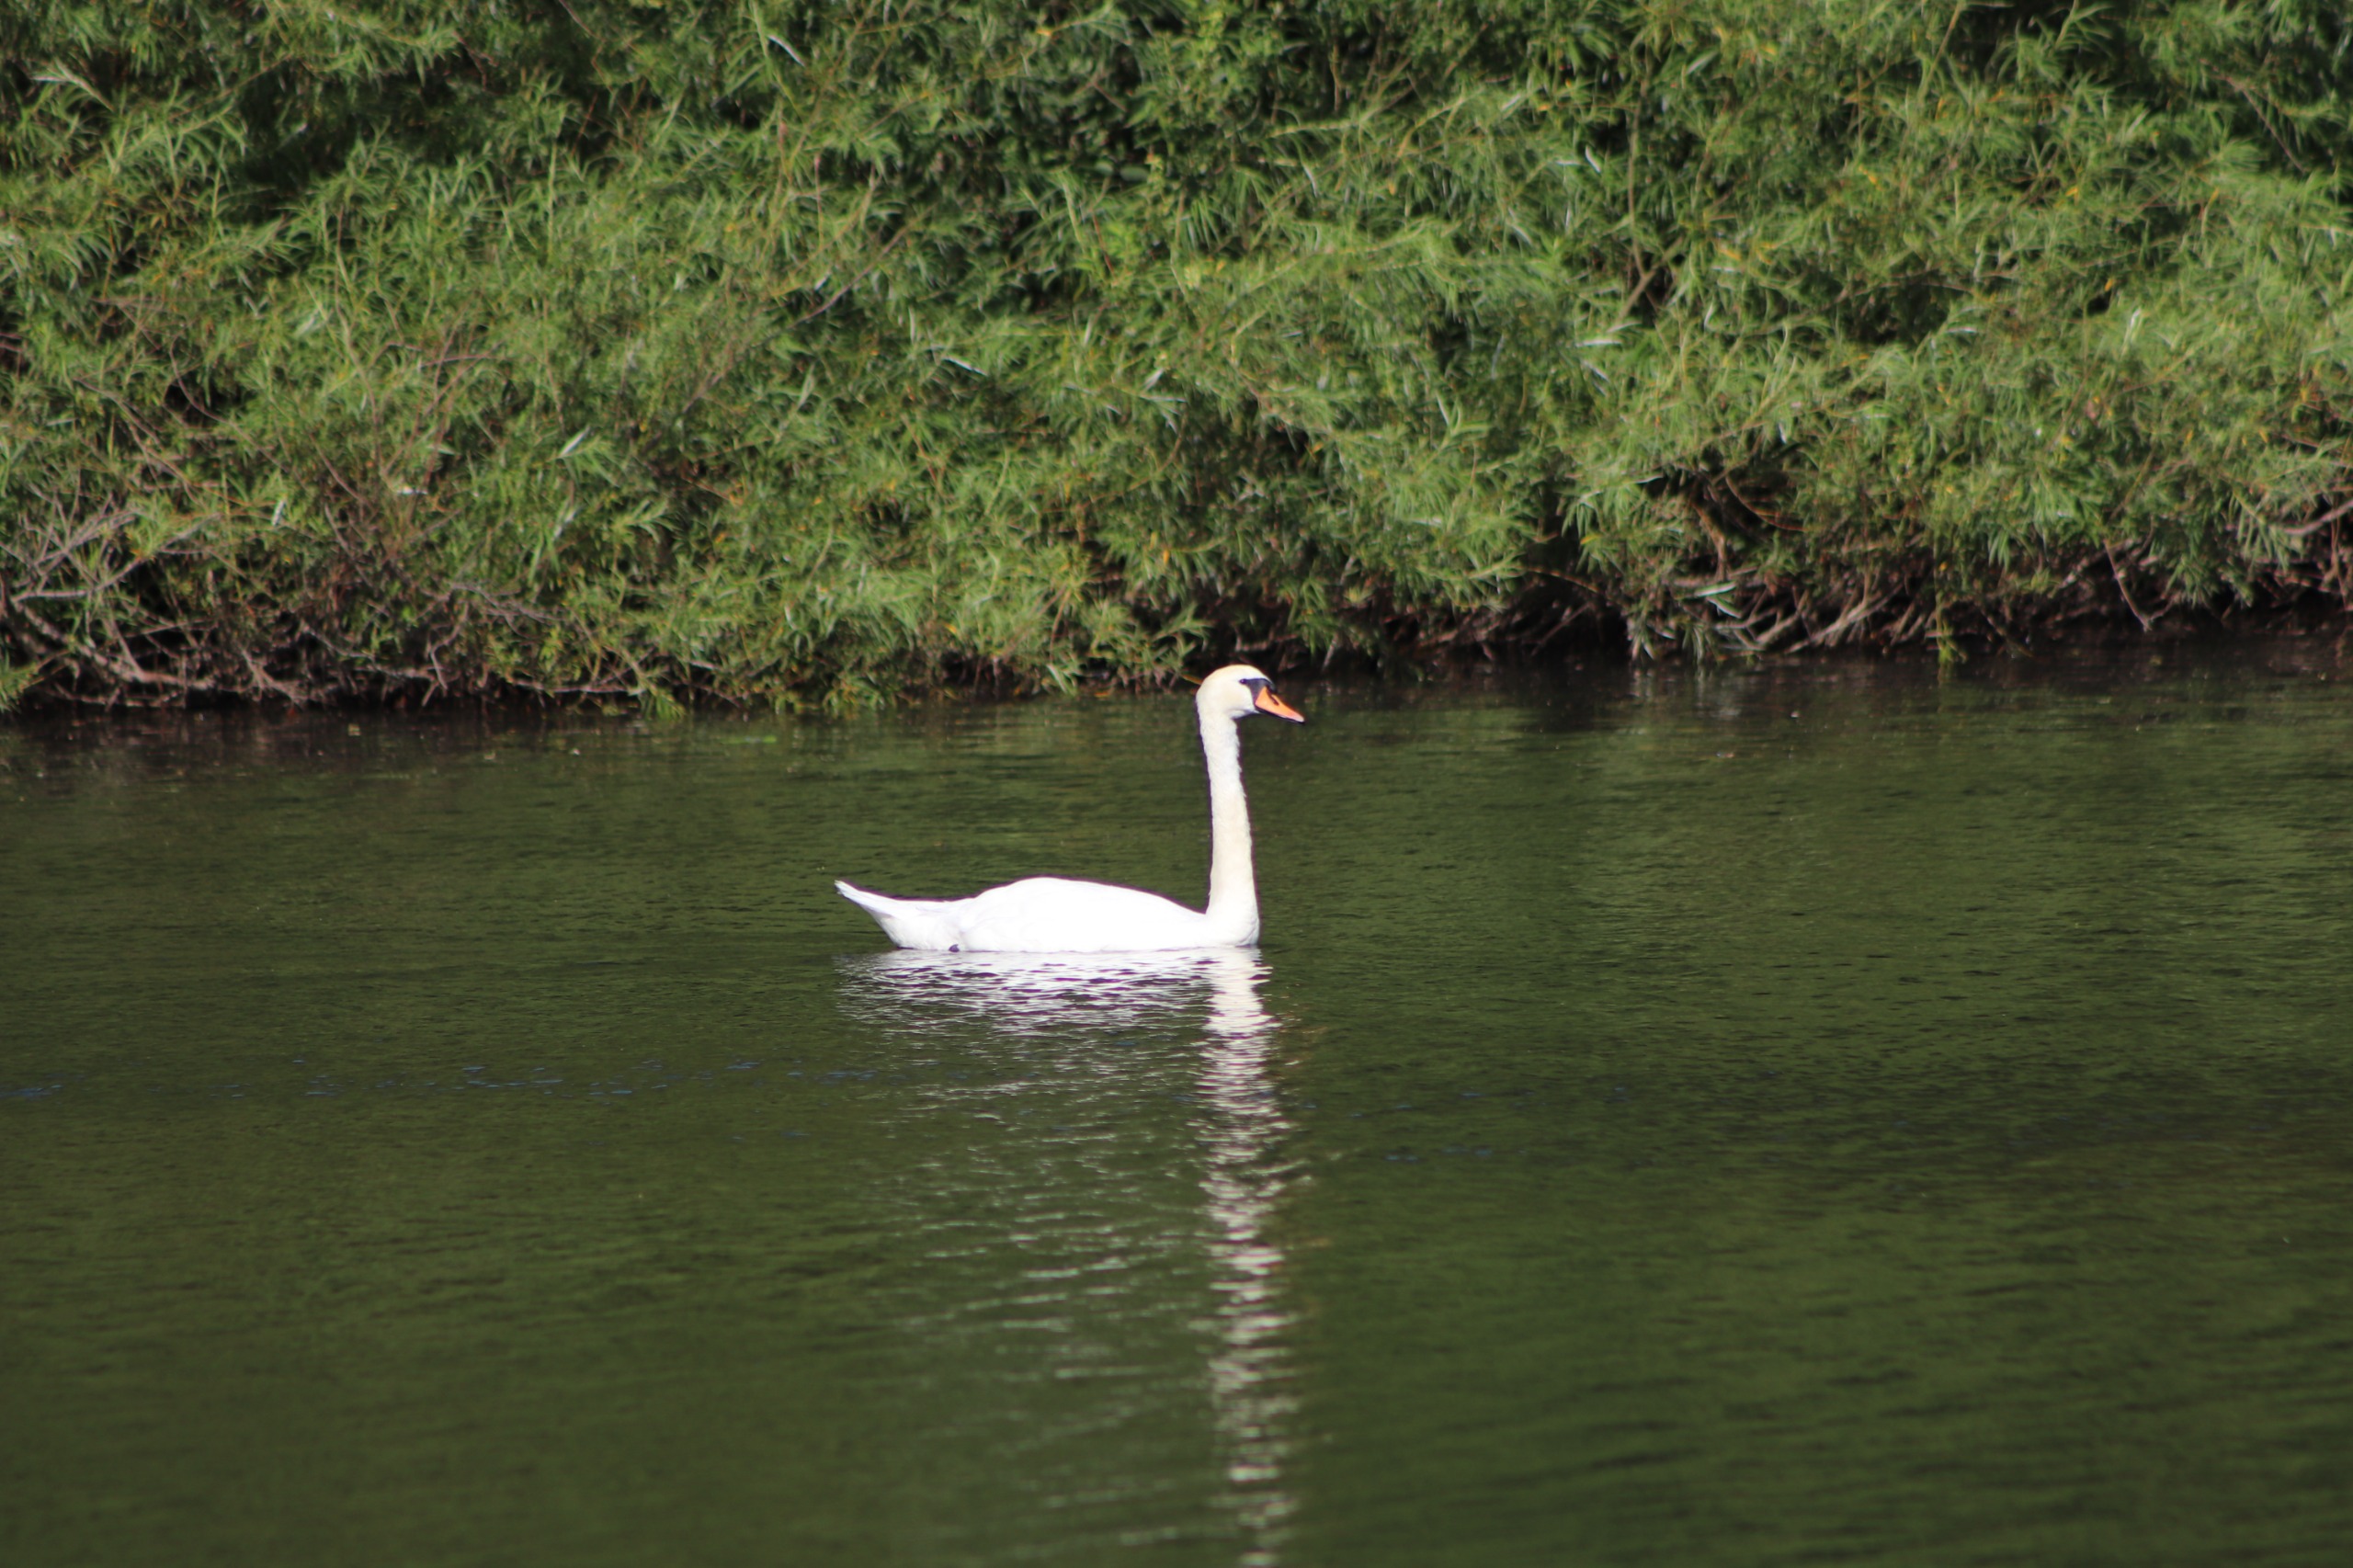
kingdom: Animalia
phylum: Chordata
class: Aves
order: Anseriformes
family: Anatidae
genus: Cygnus
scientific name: Cygnus olor
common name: Knopsvane
